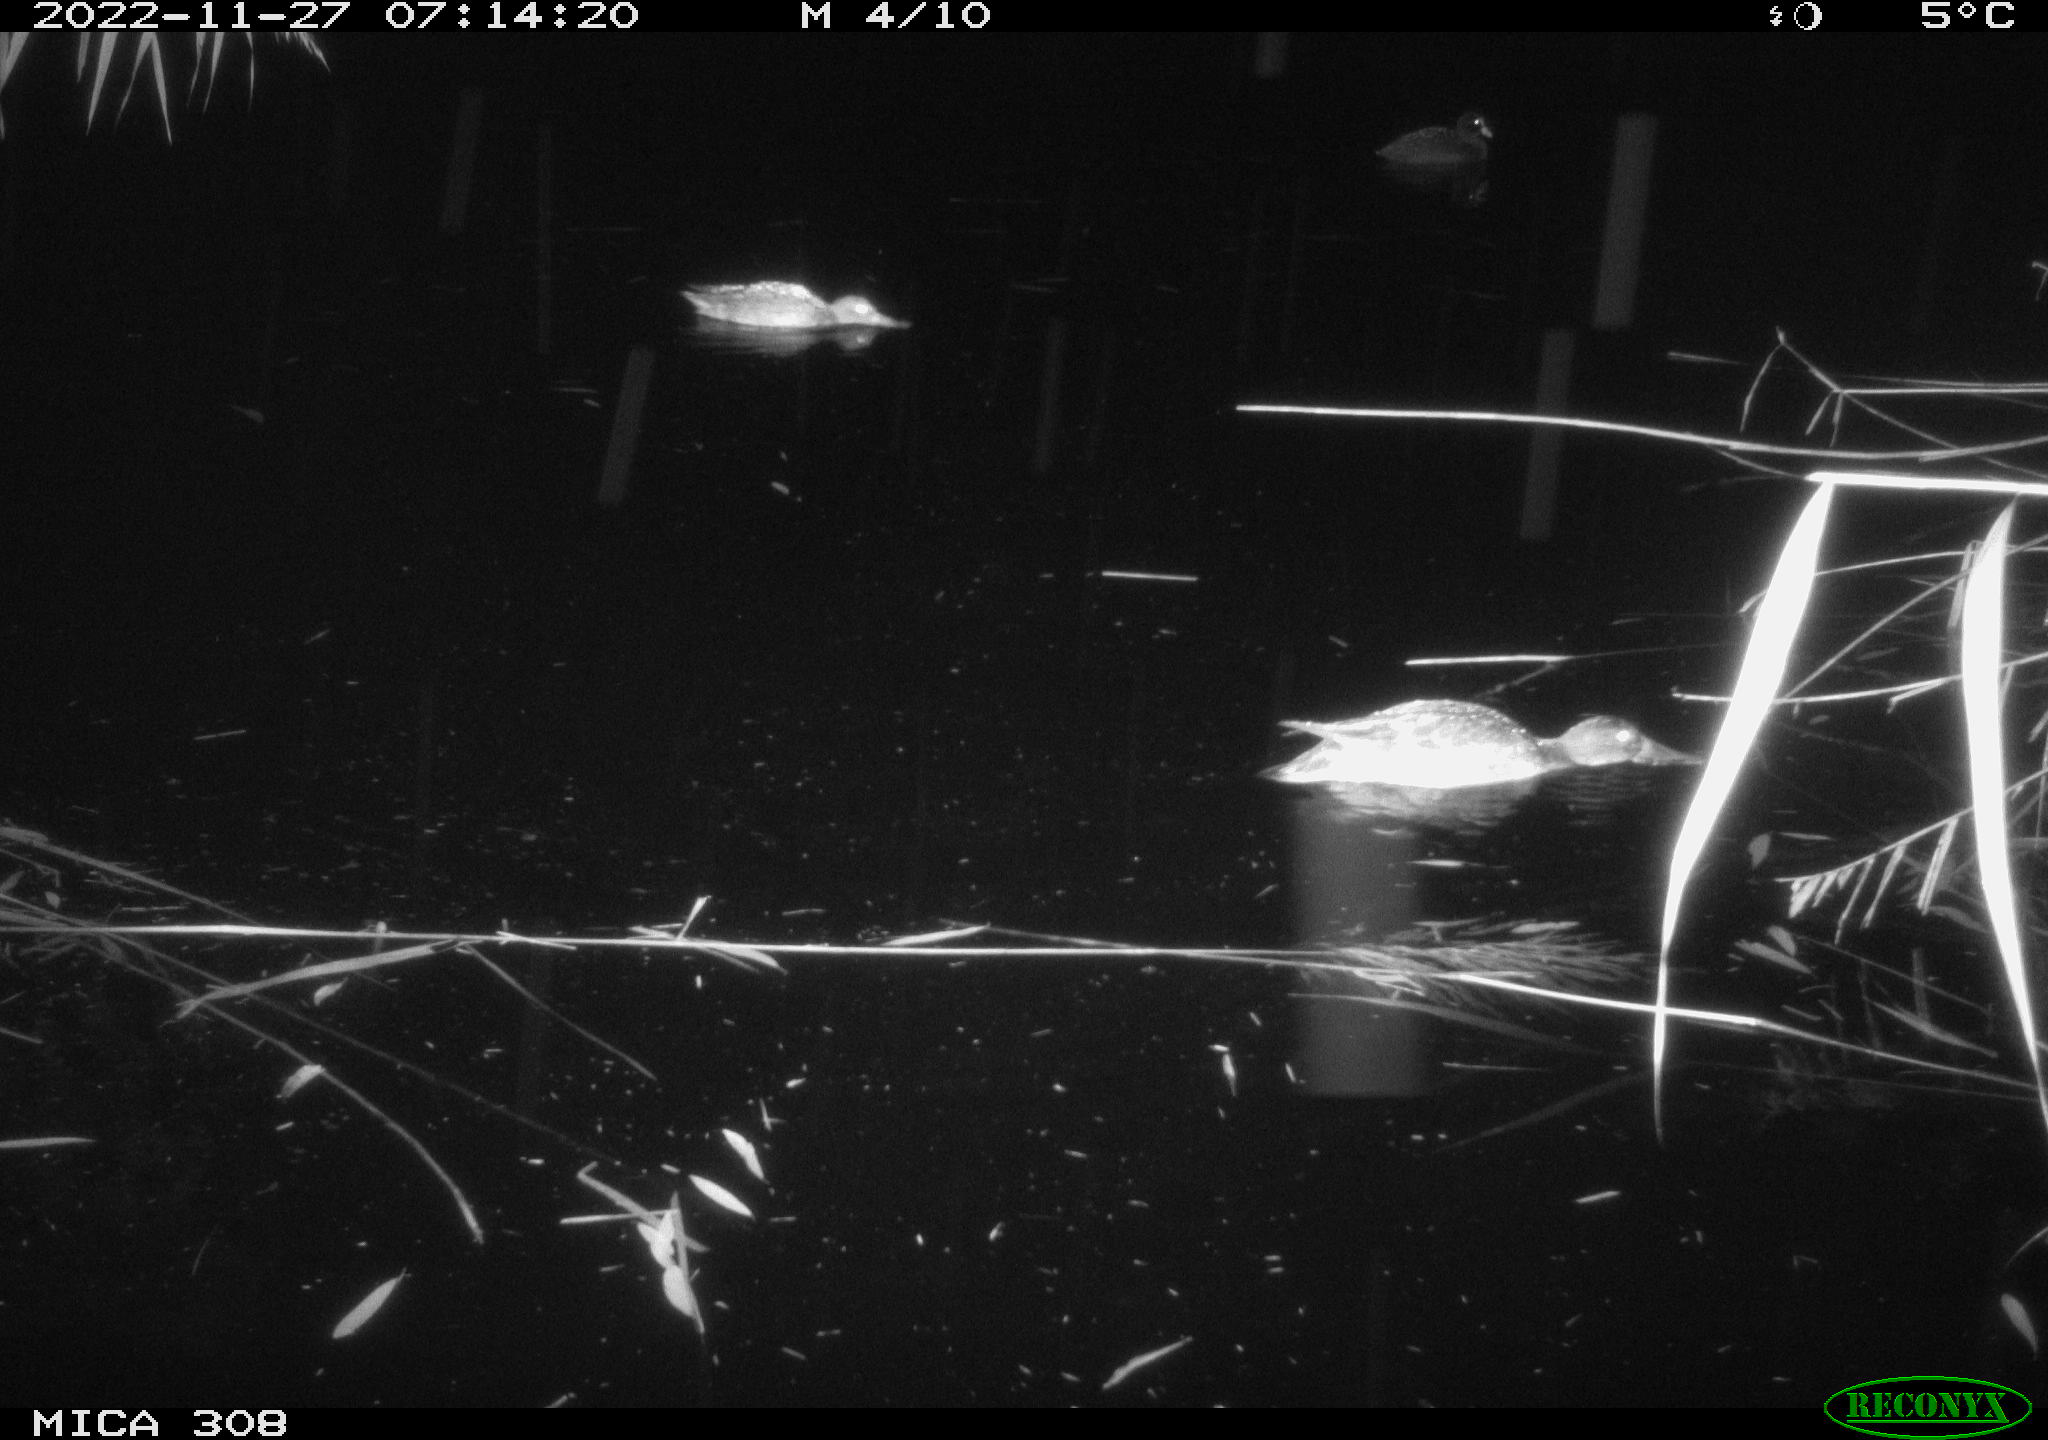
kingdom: Animalia
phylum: Chordata
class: Aves
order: Anseriformes
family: Anatidae
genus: Anas
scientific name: Anas
